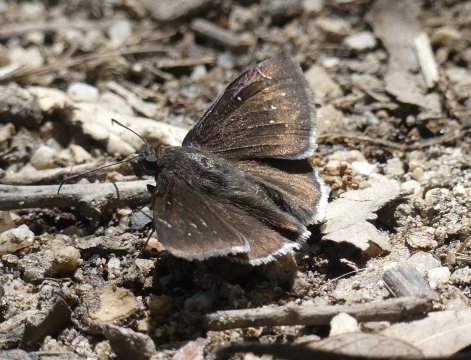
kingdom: Animalia
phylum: Arthropoda
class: Insecta
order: Lepidoptera
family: Hesperiidae
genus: Thorybes
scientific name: Thorybes drusius
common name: Drusius Cloudywing
